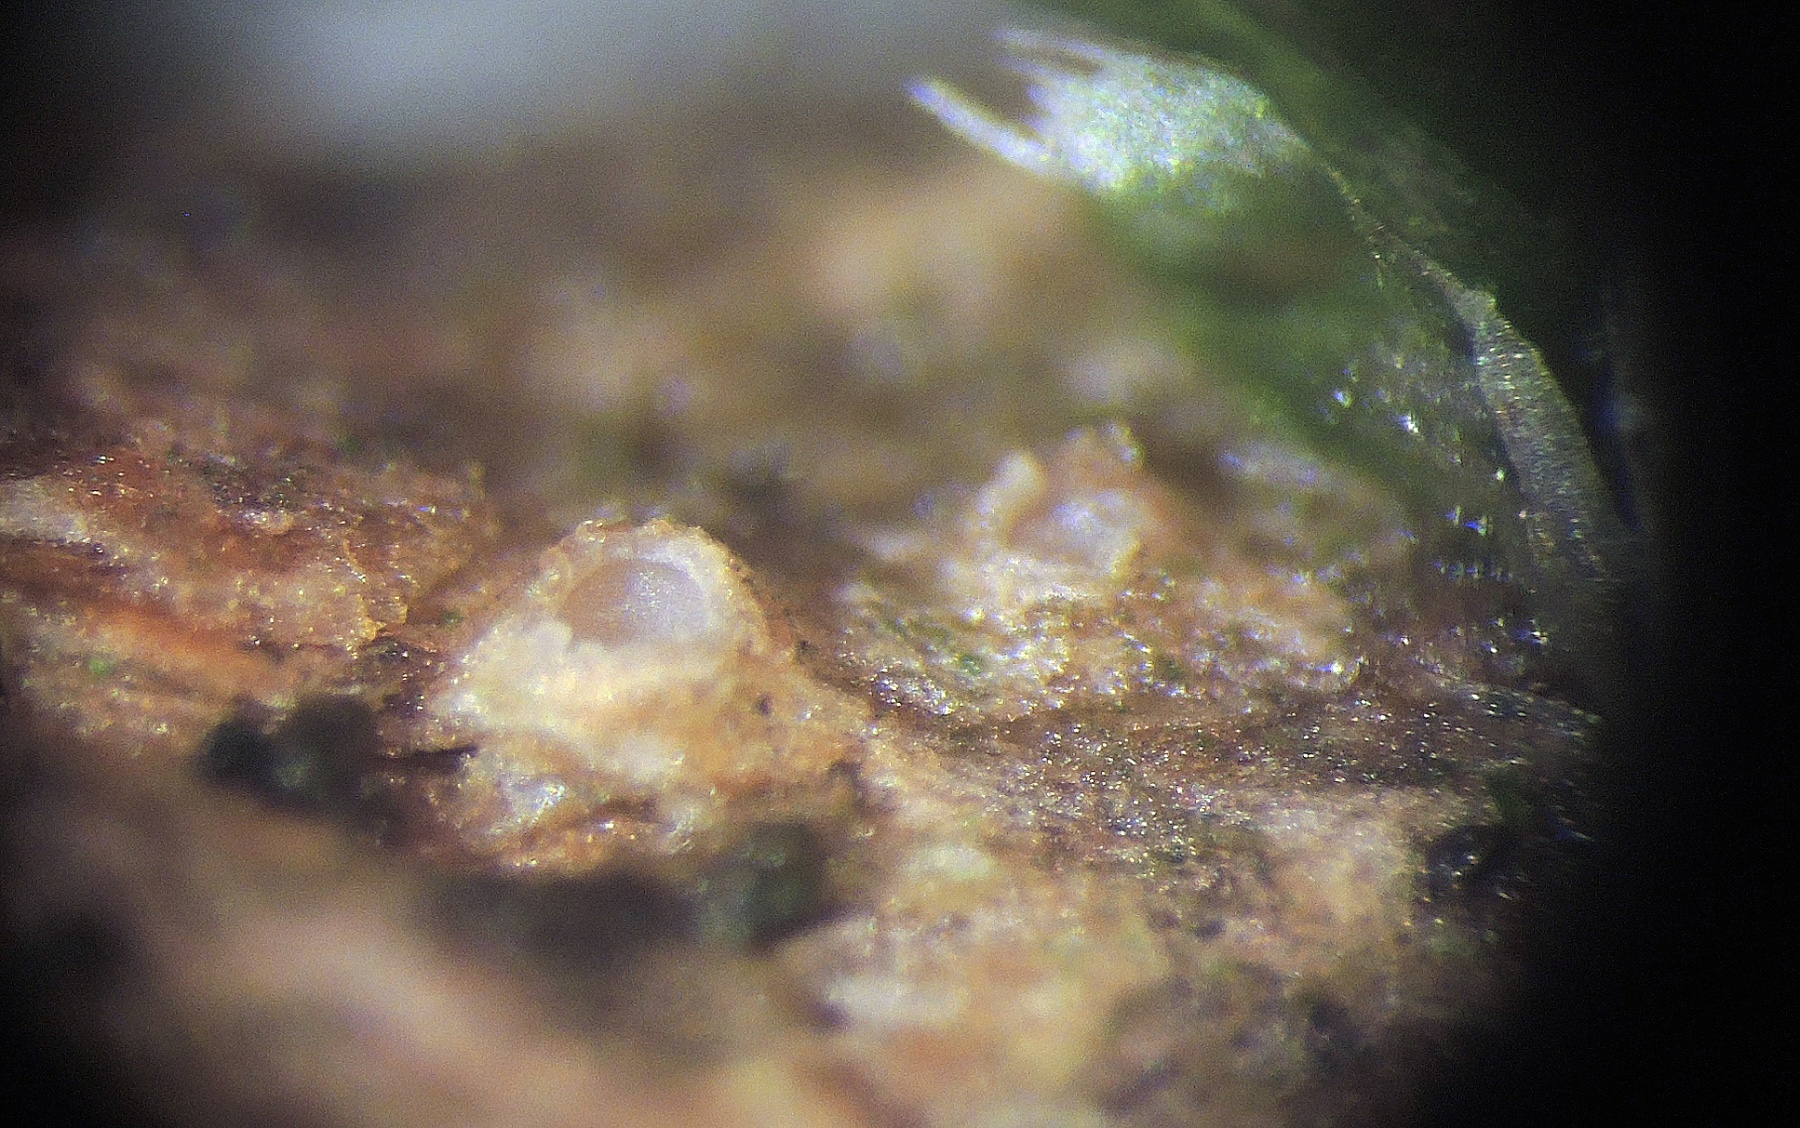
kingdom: Fungi
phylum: Ascomycota
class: Lecanoromycetes
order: Ostropales
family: Stictidaceae
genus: Karstenia
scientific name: Karstenia rhopaloides
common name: grårosa barkhul
